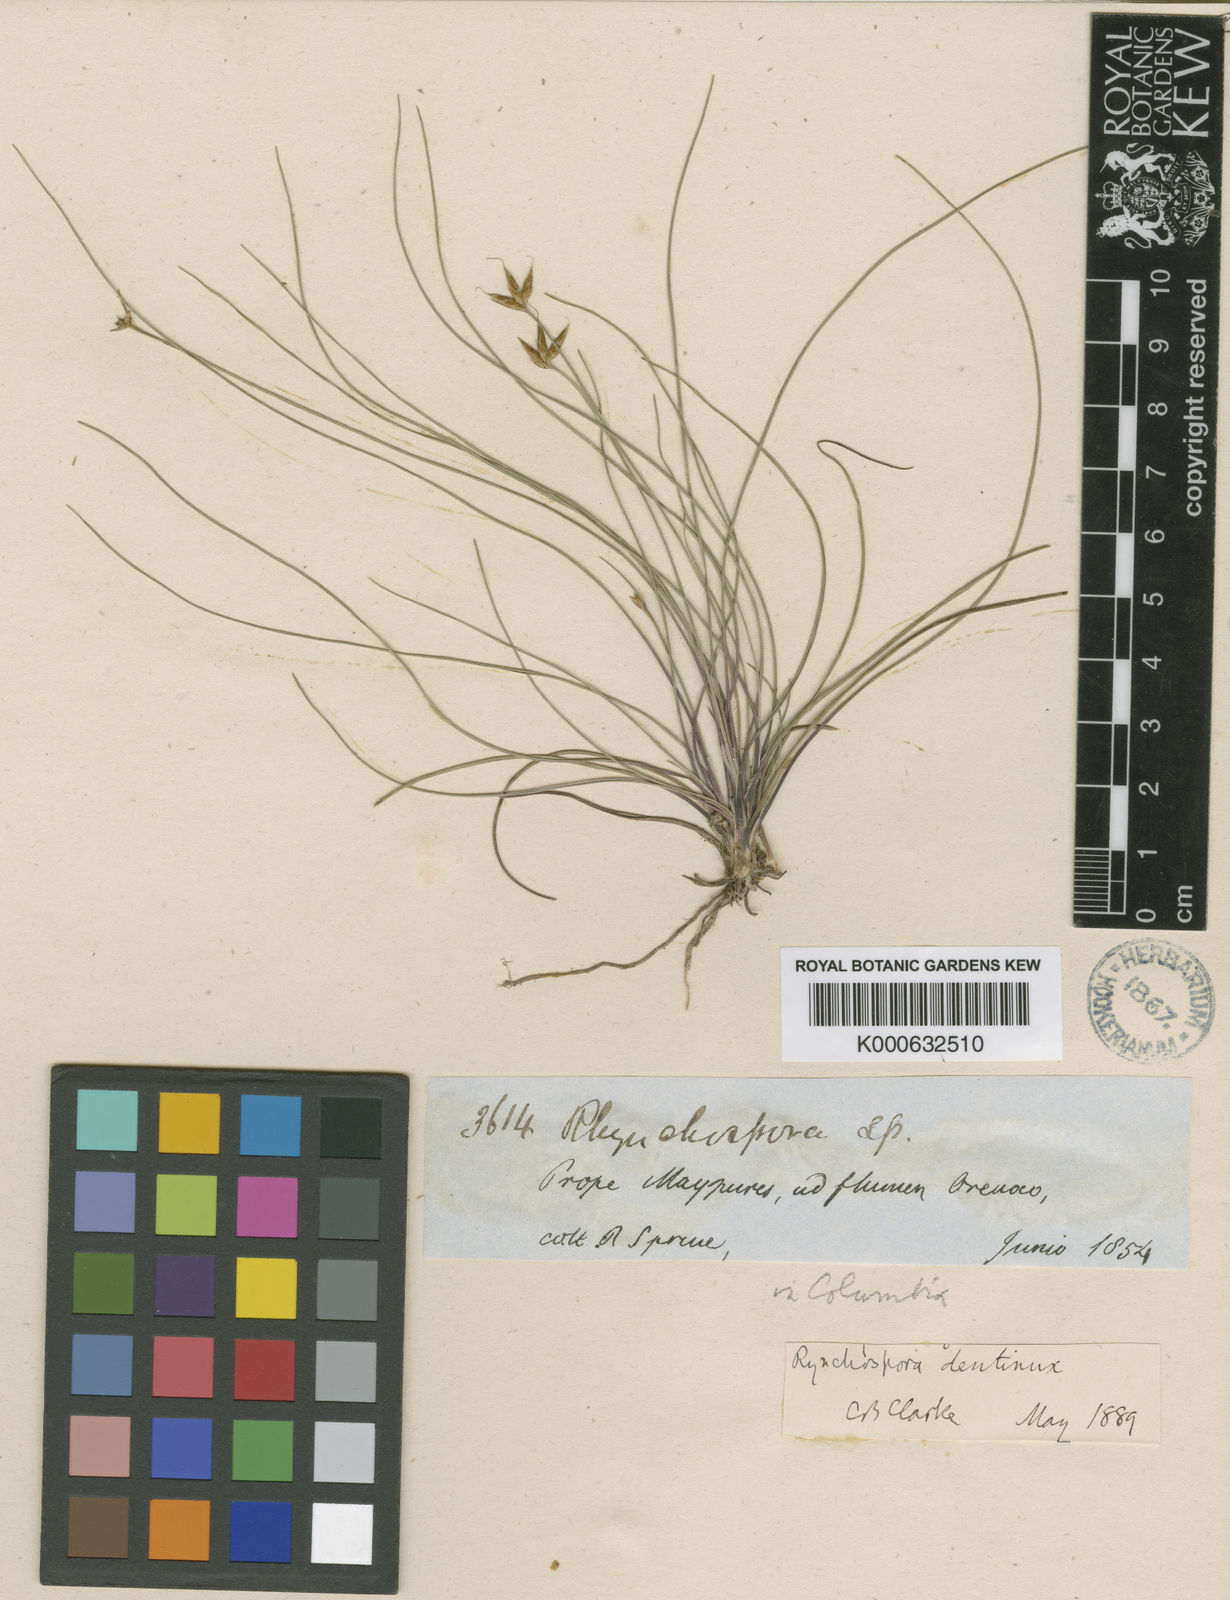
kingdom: Plantae
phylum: Tracheophyta
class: Liliopsida
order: Poales
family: Cyperaceae
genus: Rhynchospora
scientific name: Rhynchospora dentinux
